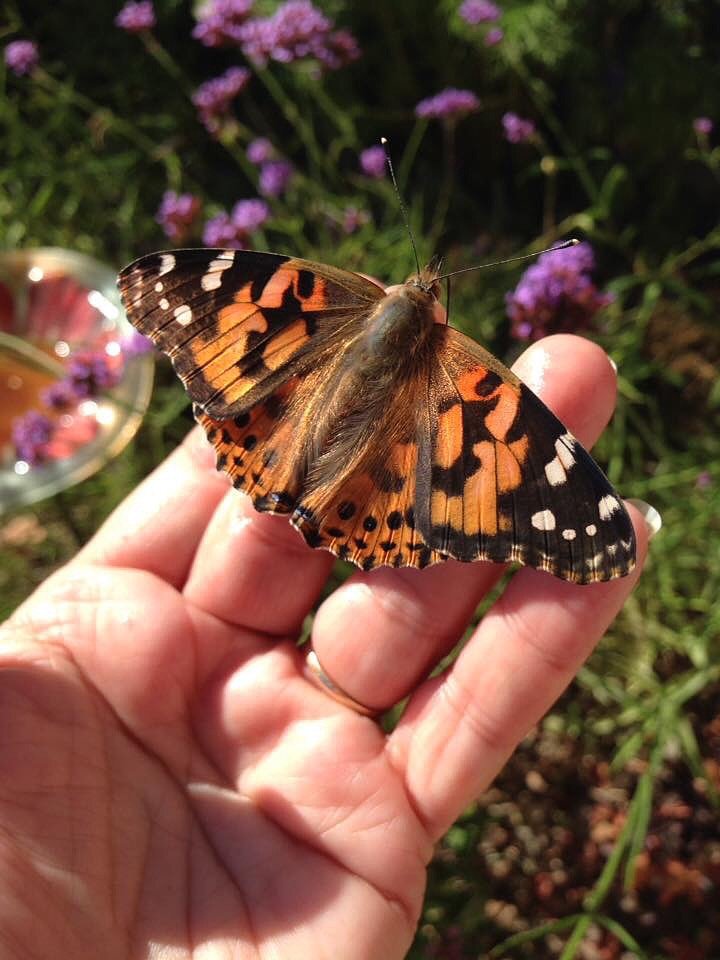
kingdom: Animalia
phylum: Arthropoda
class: Insecta
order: Lepidoptera
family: Nymphalidae
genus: Vanessa
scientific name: Vanessa cardui
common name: Painted Lady
